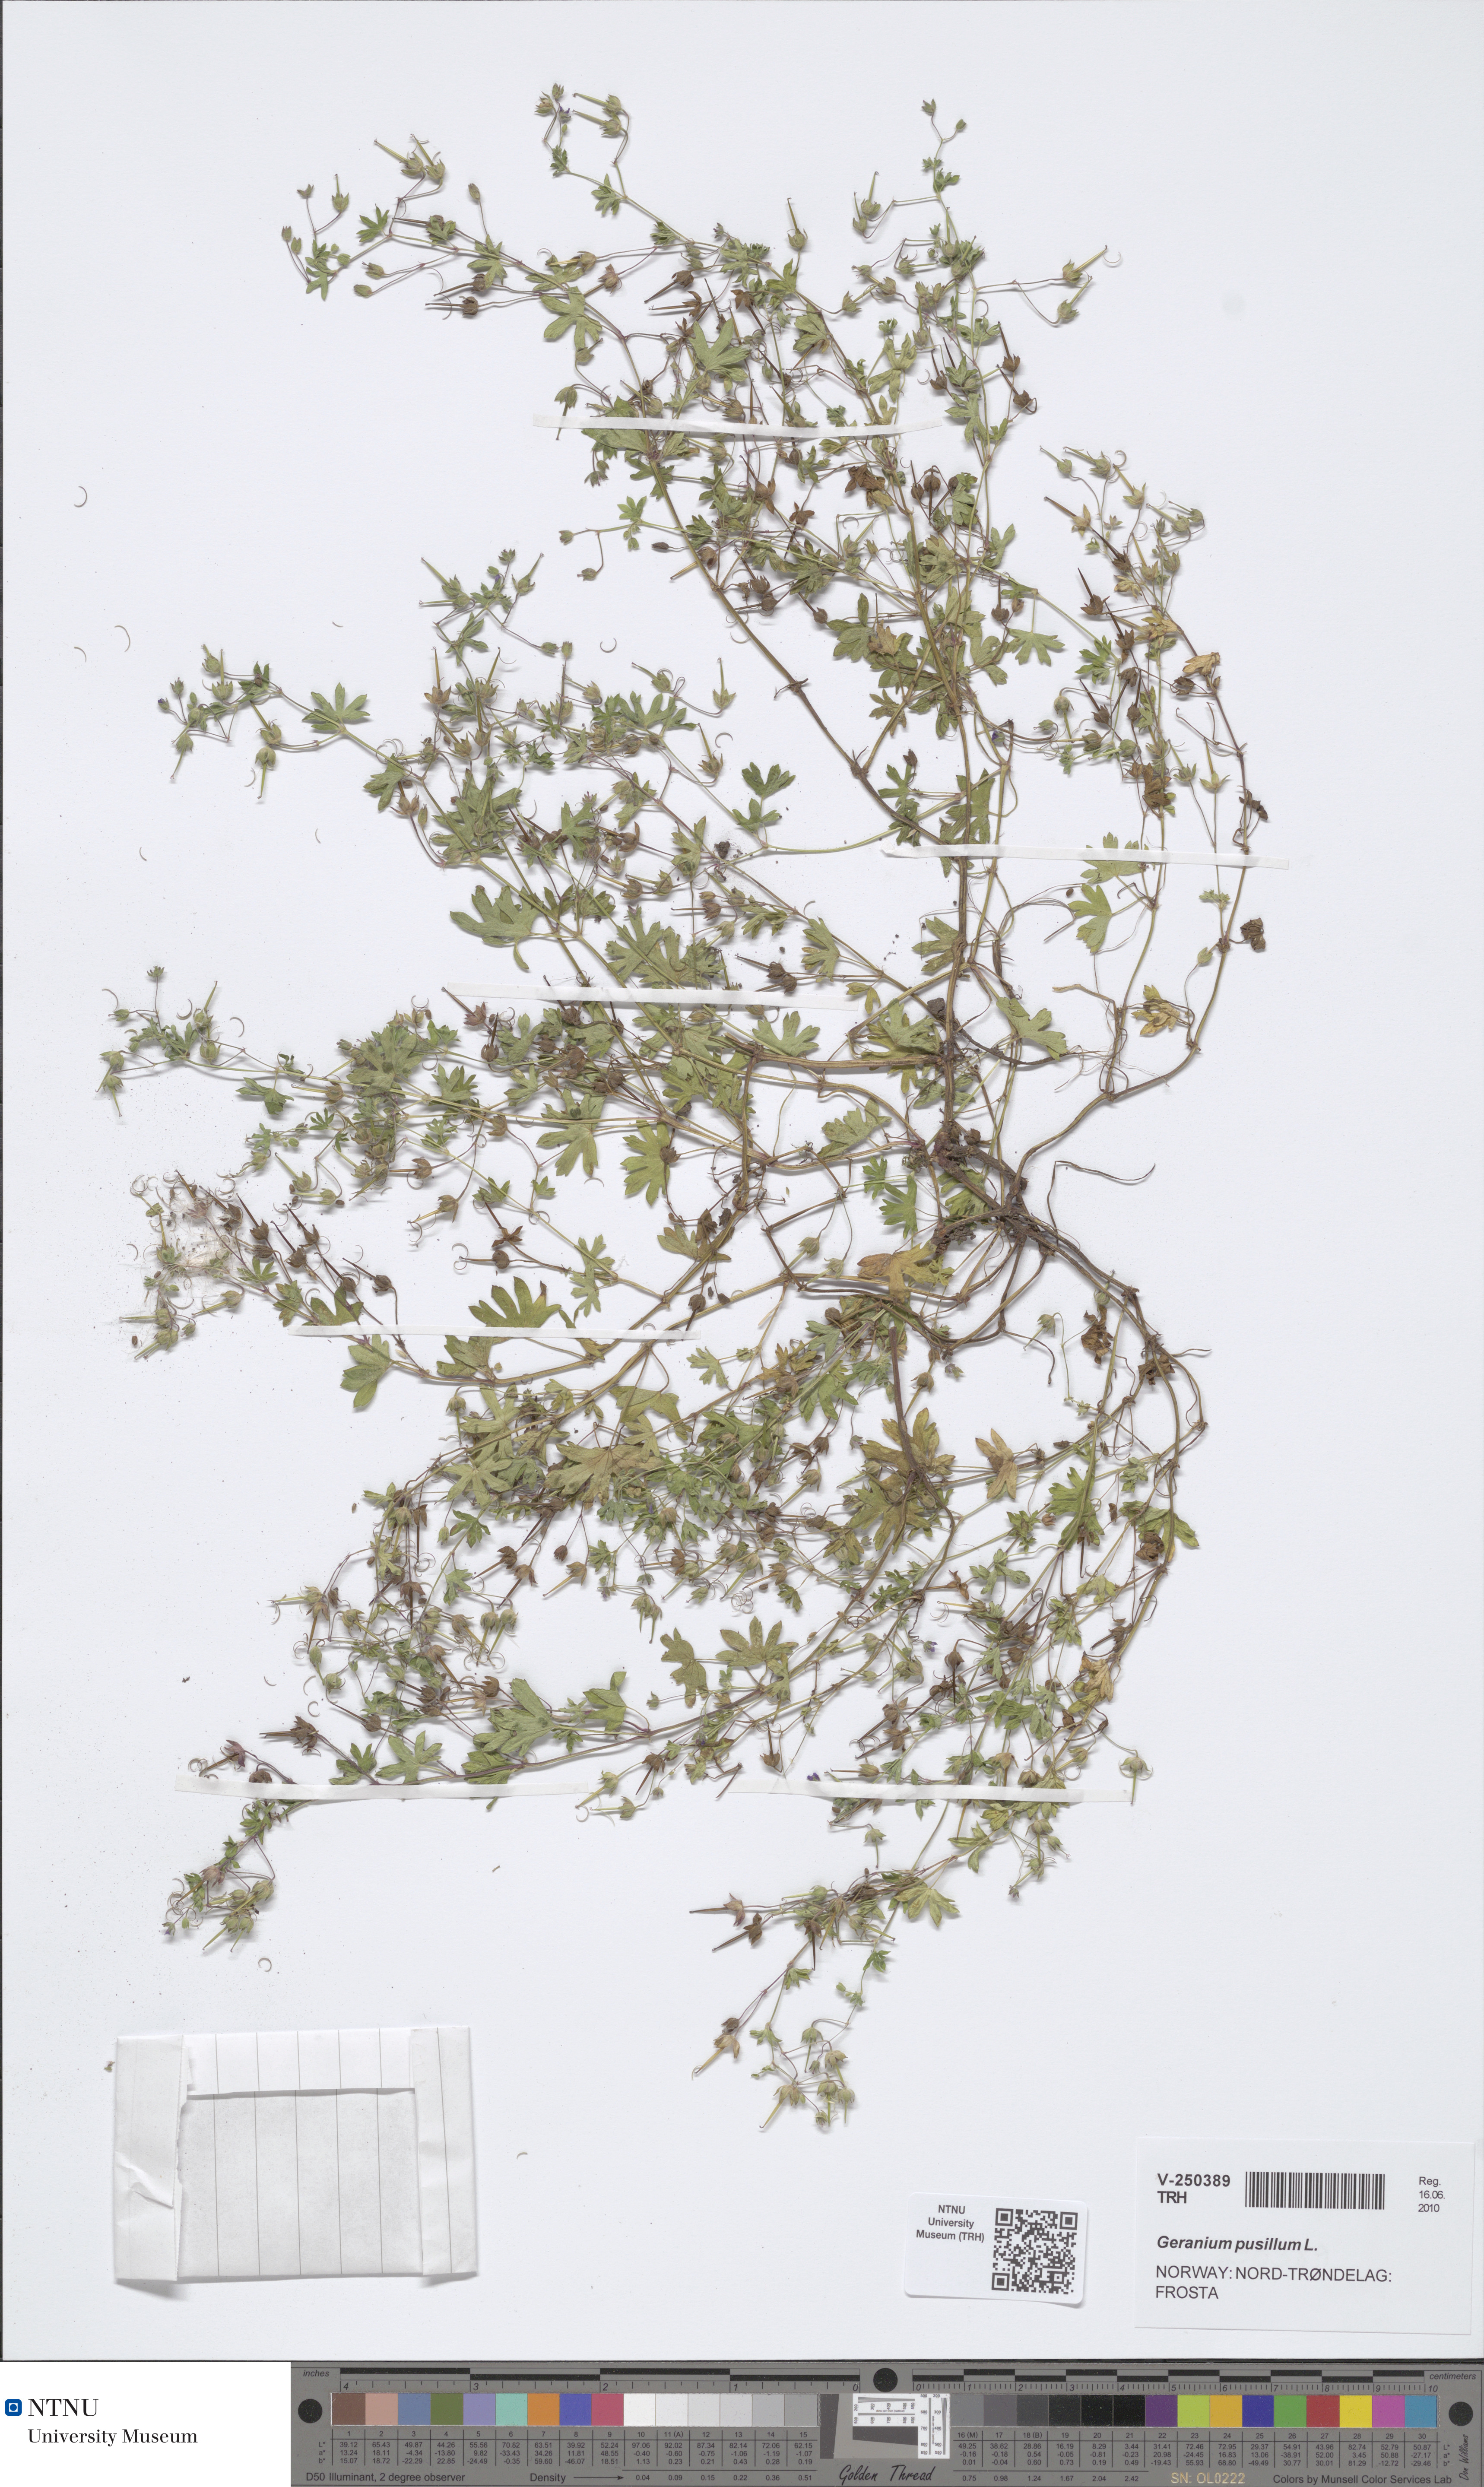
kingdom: Plantae
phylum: Tracheophyta
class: Magnoliopsida
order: Geraniales
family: Geraniaceae
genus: Geranium
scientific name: Geranium pusillum
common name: Small geranium
